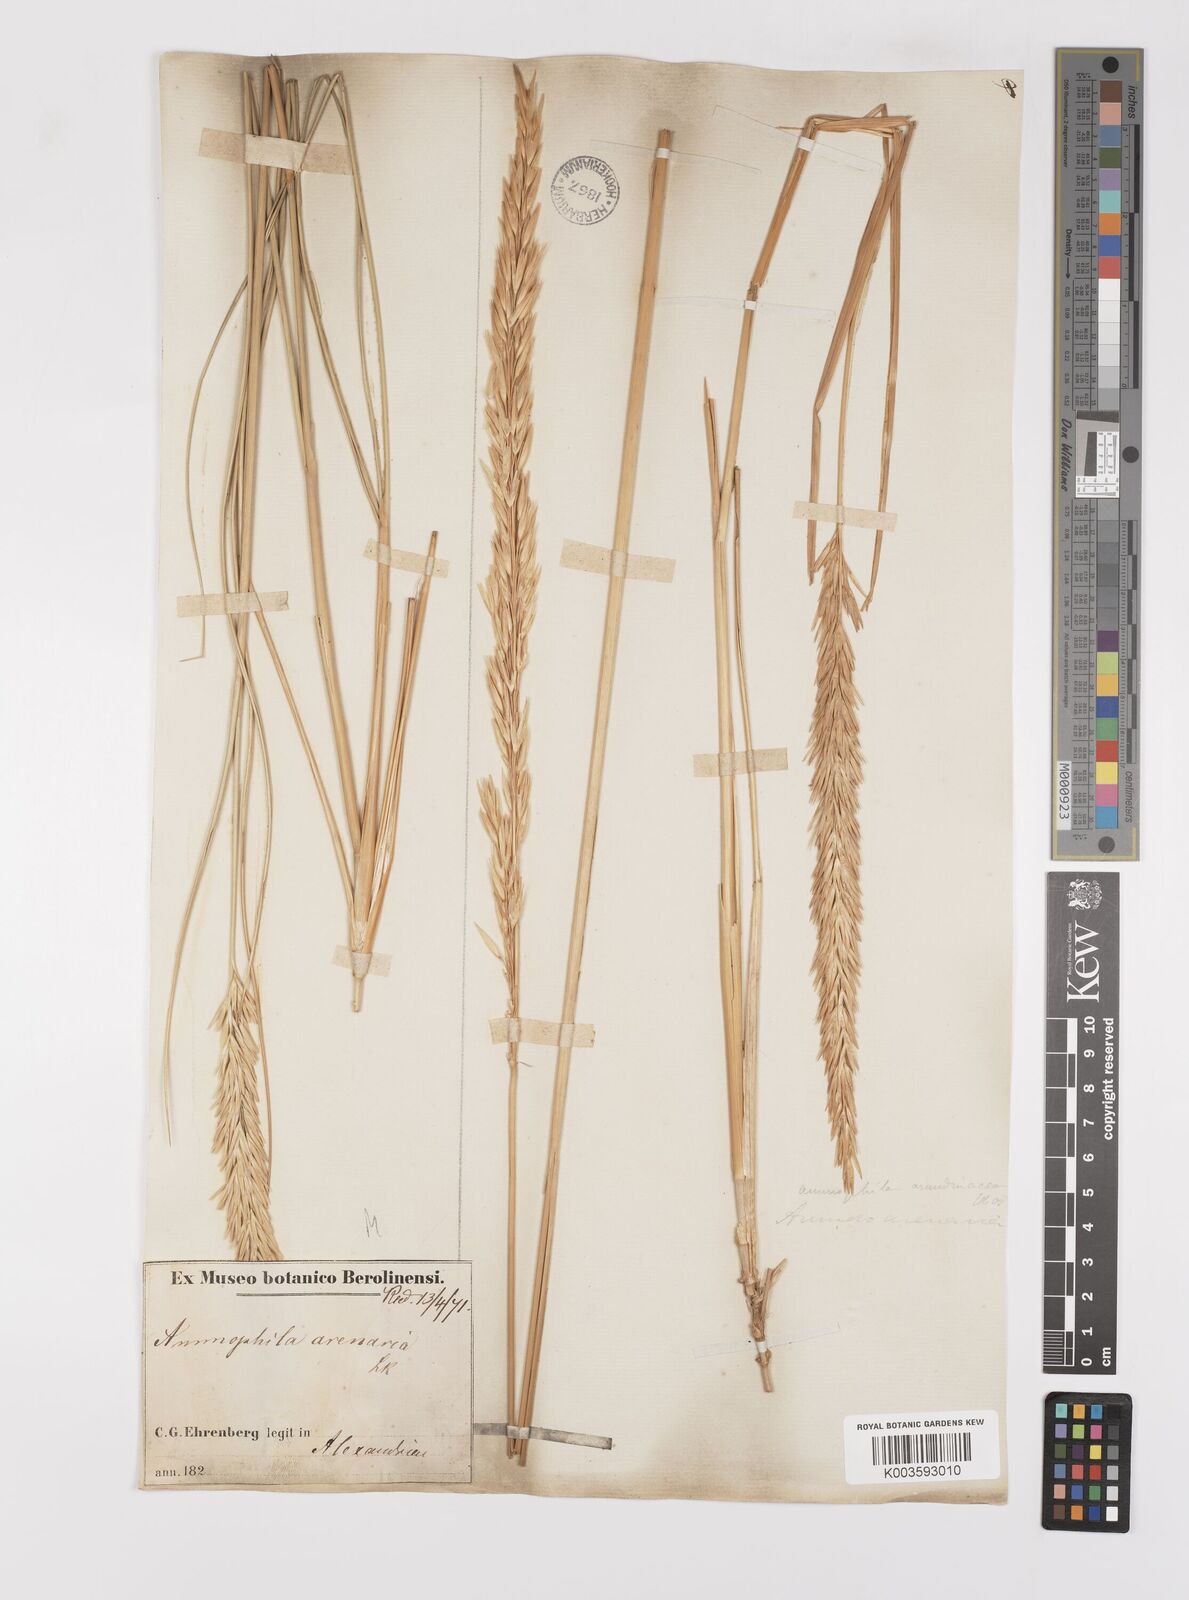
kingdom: Plantae
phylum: Tracheophyta
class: Liliopsida
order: Poales
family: Poaceae
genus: Calamagrostis
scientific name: Calamagrostis arenaria
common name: European beachgrass
